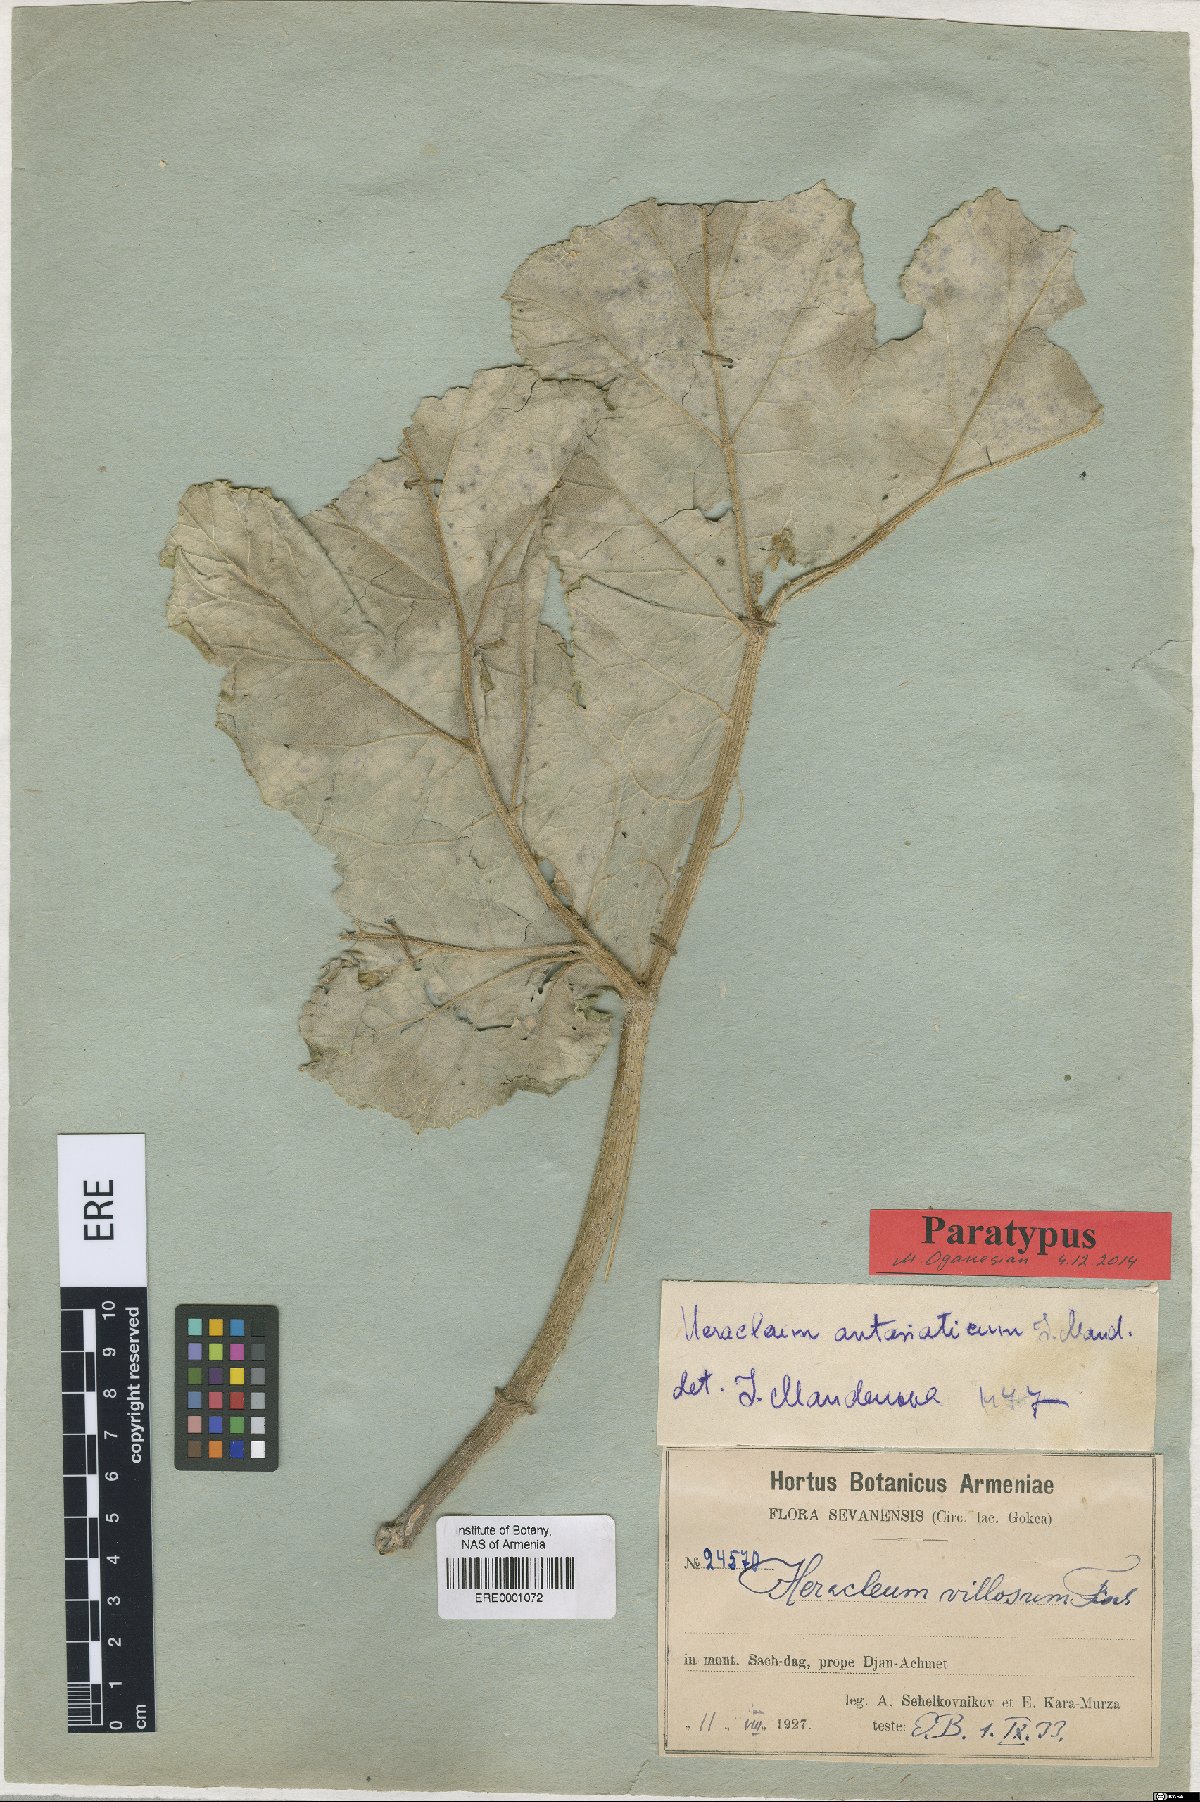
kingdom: Plantae
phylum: Tracheophyta
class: Magnoliopsida
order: Apiales
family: Apiaceae
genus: Heracleum
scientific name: Heracleum antasiaticum
